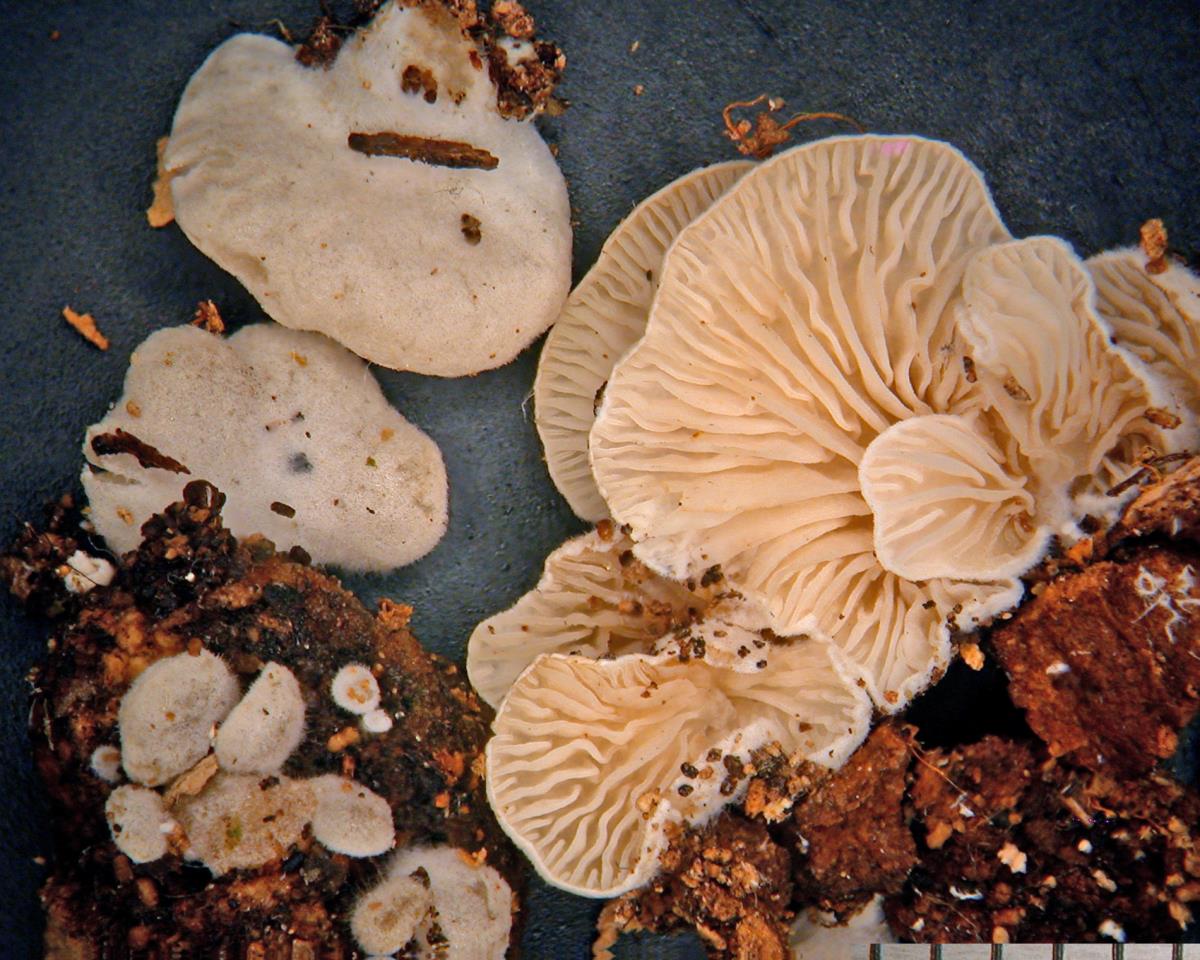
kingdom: Fungi
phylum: Basidiomycota
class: Agaricomycetes
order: Agaricales
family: Entolomataceae
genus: Clitopilus
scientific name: Clitopilus hobsonii
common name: Miller's oysterling
